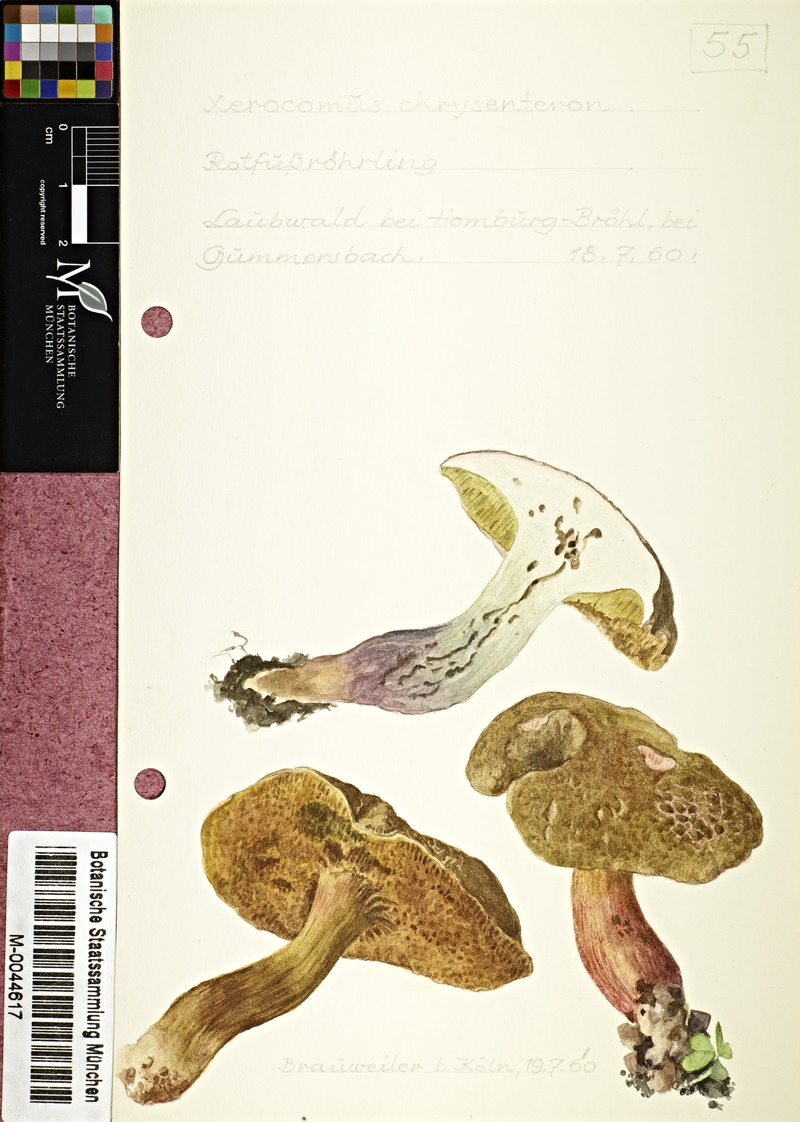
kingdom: Fungi
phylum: Basidiomycota
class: Agaricomycetes
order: Boletales
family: Boletaceae
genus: Xerocomellus
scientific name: Xerocomellus chrysenteron
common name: Red-cracking bolete
